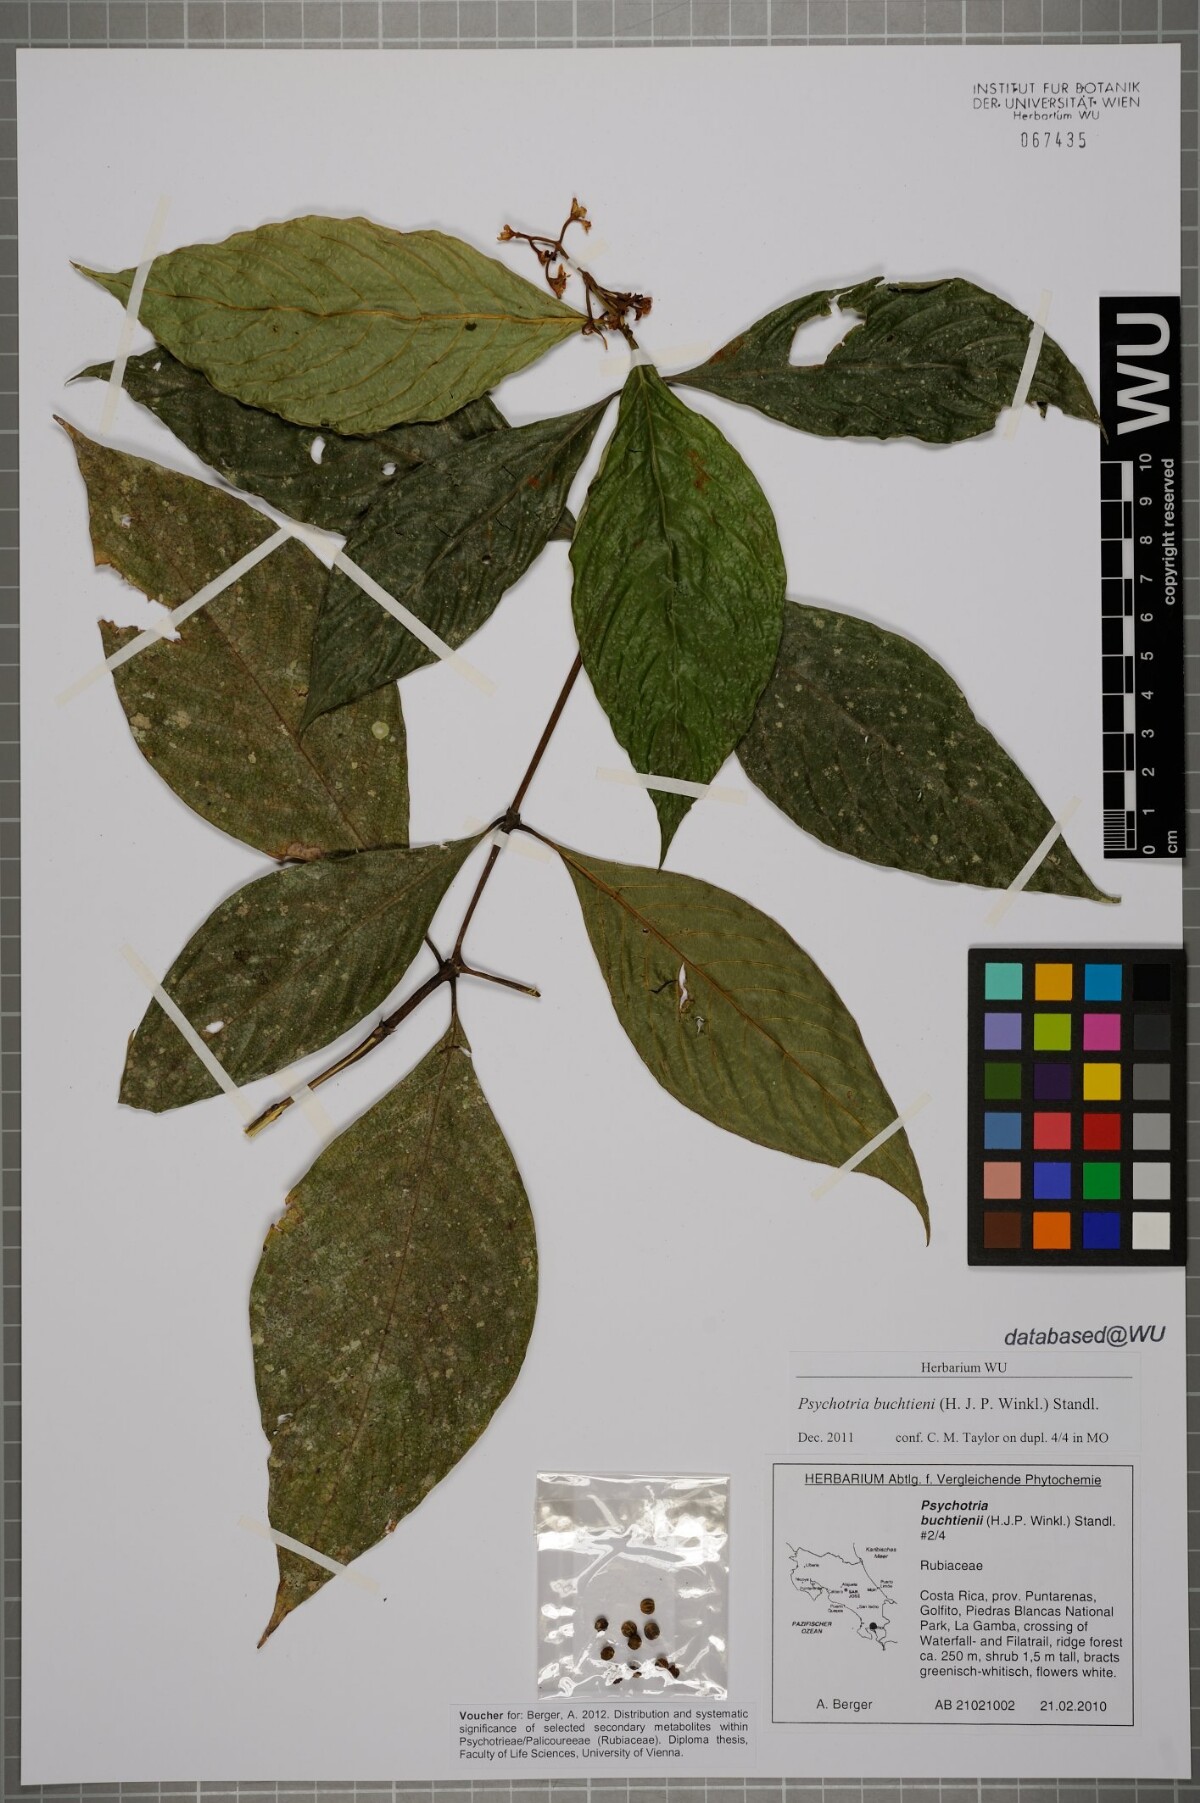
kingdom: Plantae
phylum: Tracheophyta
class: Magnoliopsida
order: Gentianales
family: Rubiaceae
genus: Palicourea
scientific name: Palicourea winkleri
